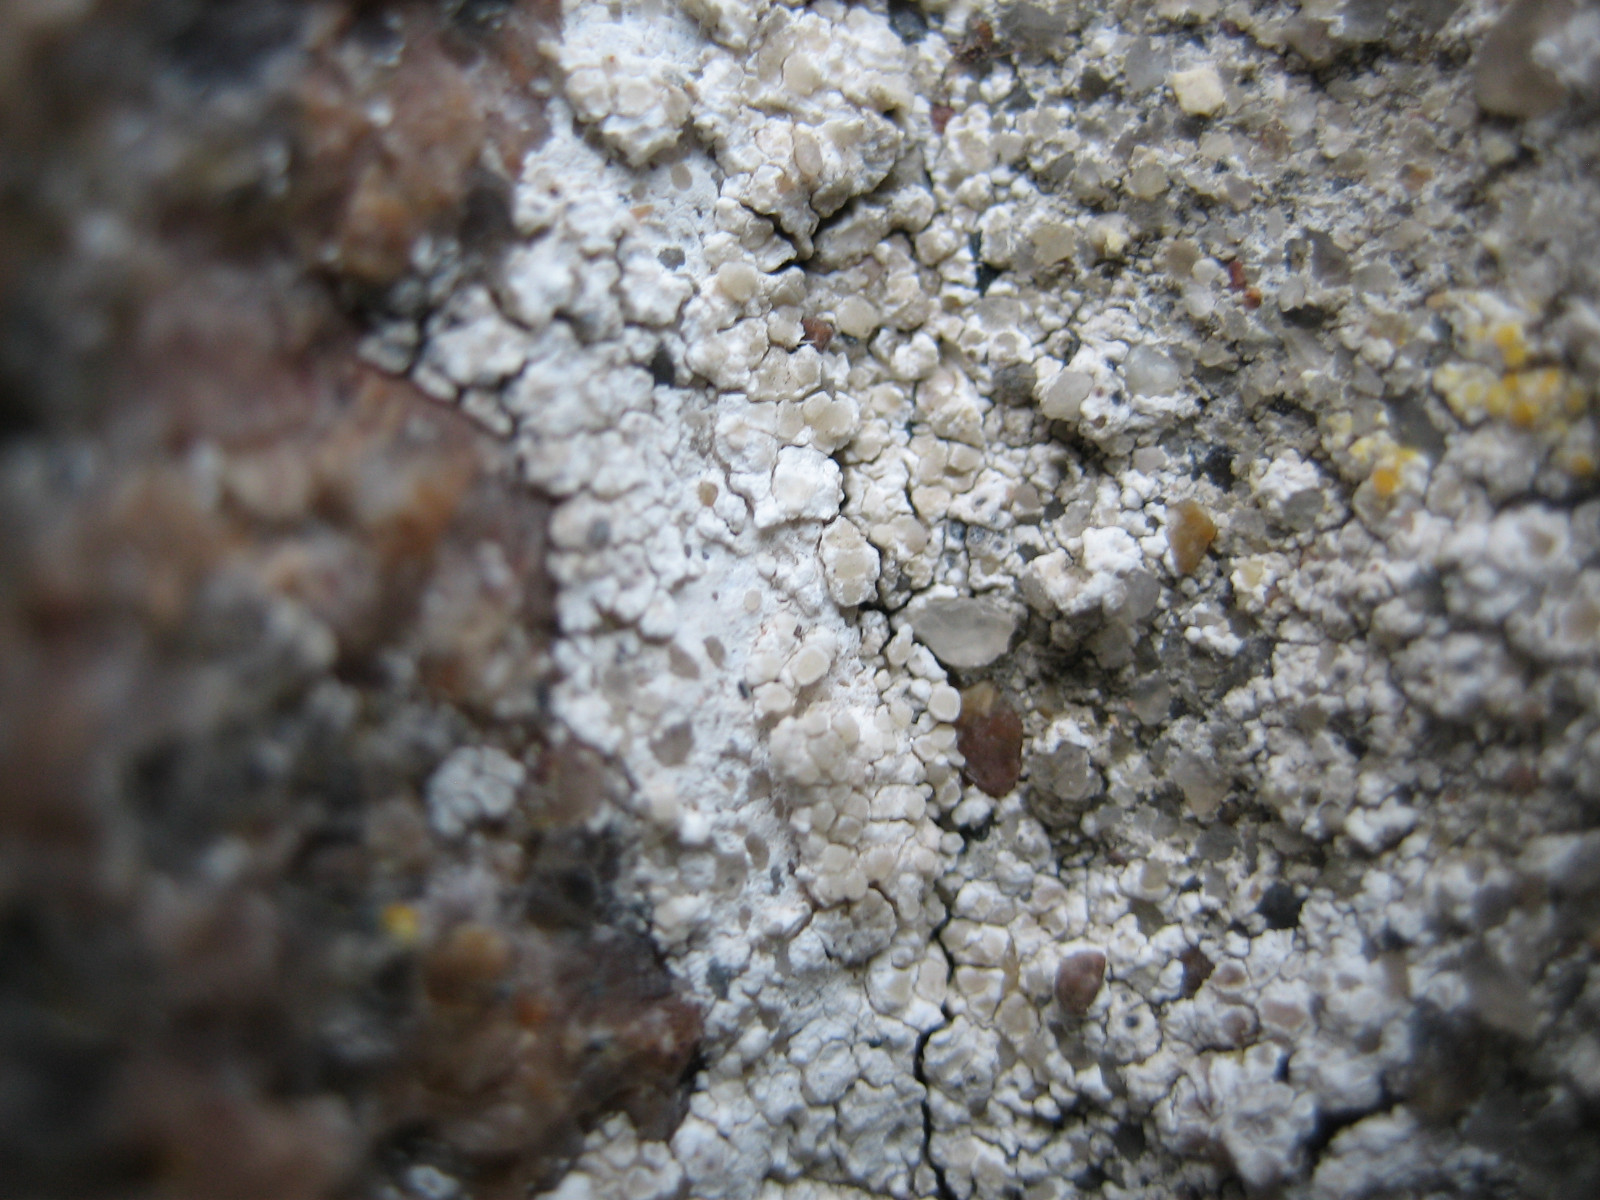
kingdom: Fungi
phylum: Ascomycota
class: Lecanoromycetes
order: Lecanorales
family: Lecanoraceae
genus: Polyozosia
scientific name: Polyozosia albescens
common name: cement-kantskivelav
